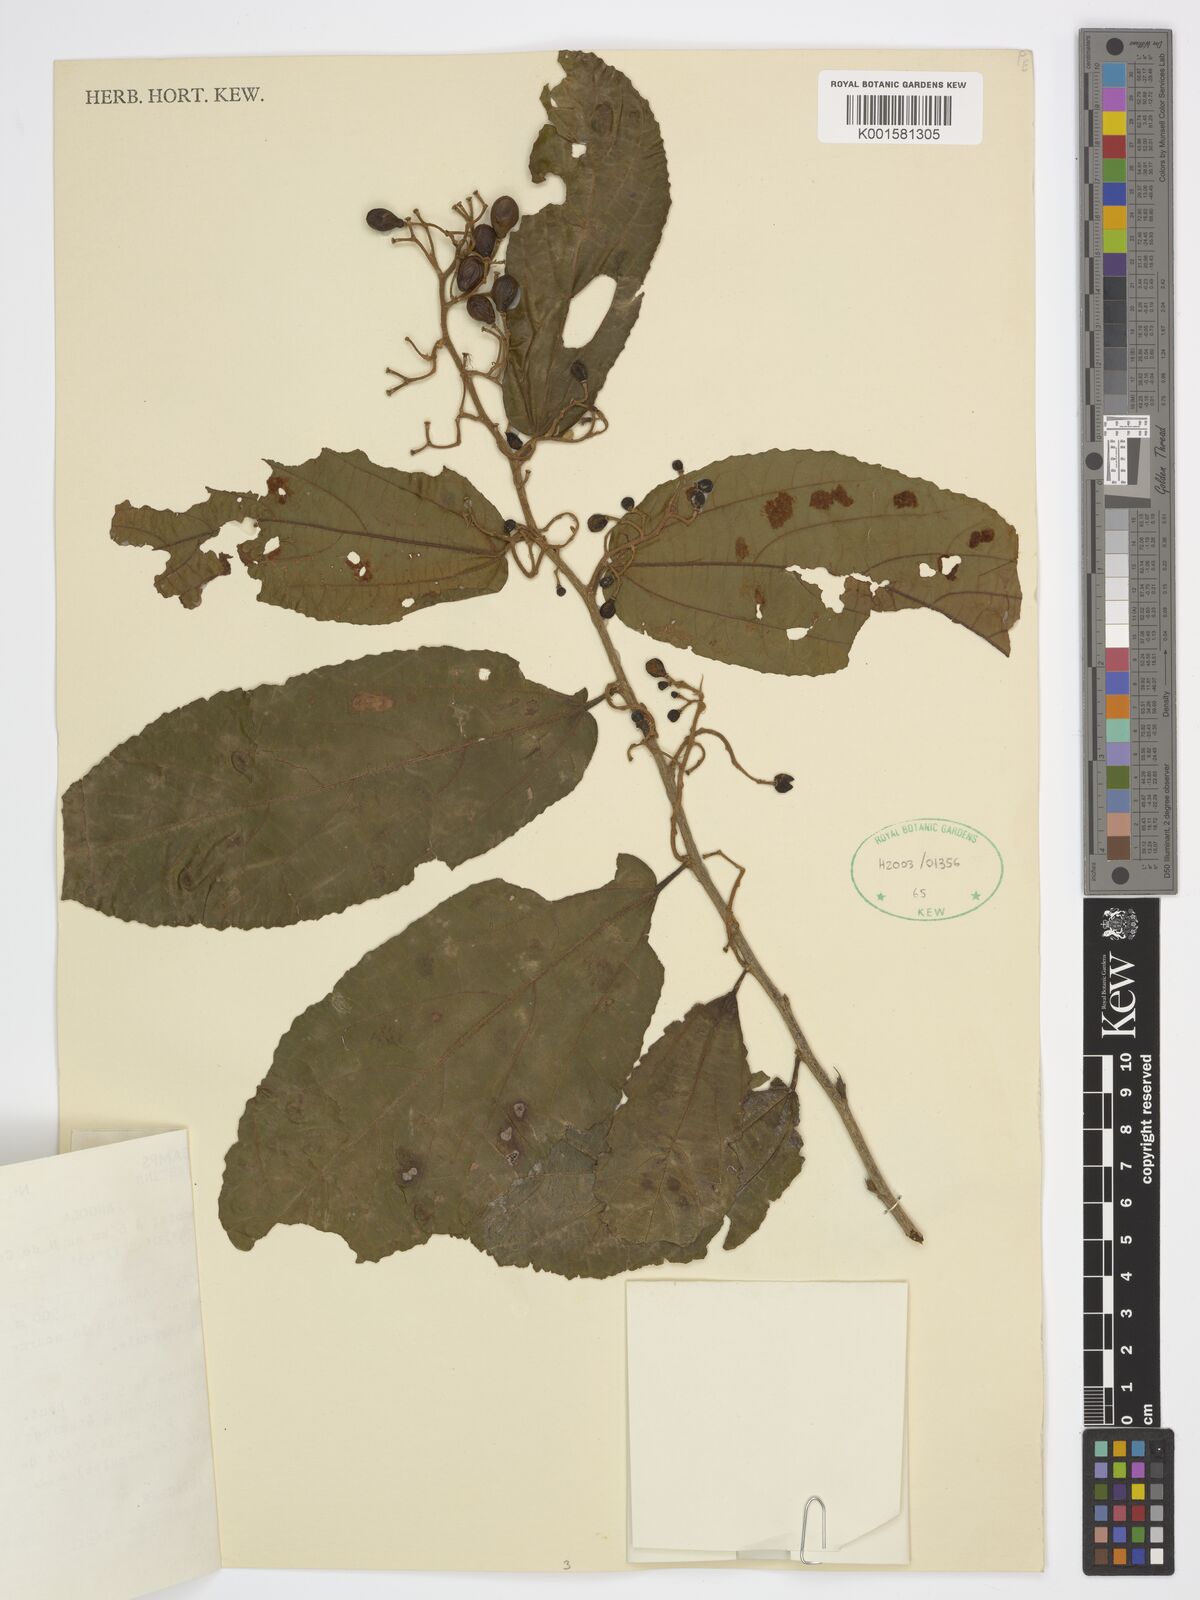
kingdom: Plantae
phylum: Tracheophyta
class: Magnoliopsida
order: Malvales
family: Malvaceae
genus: Microcos
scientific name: Microcos floribunda
